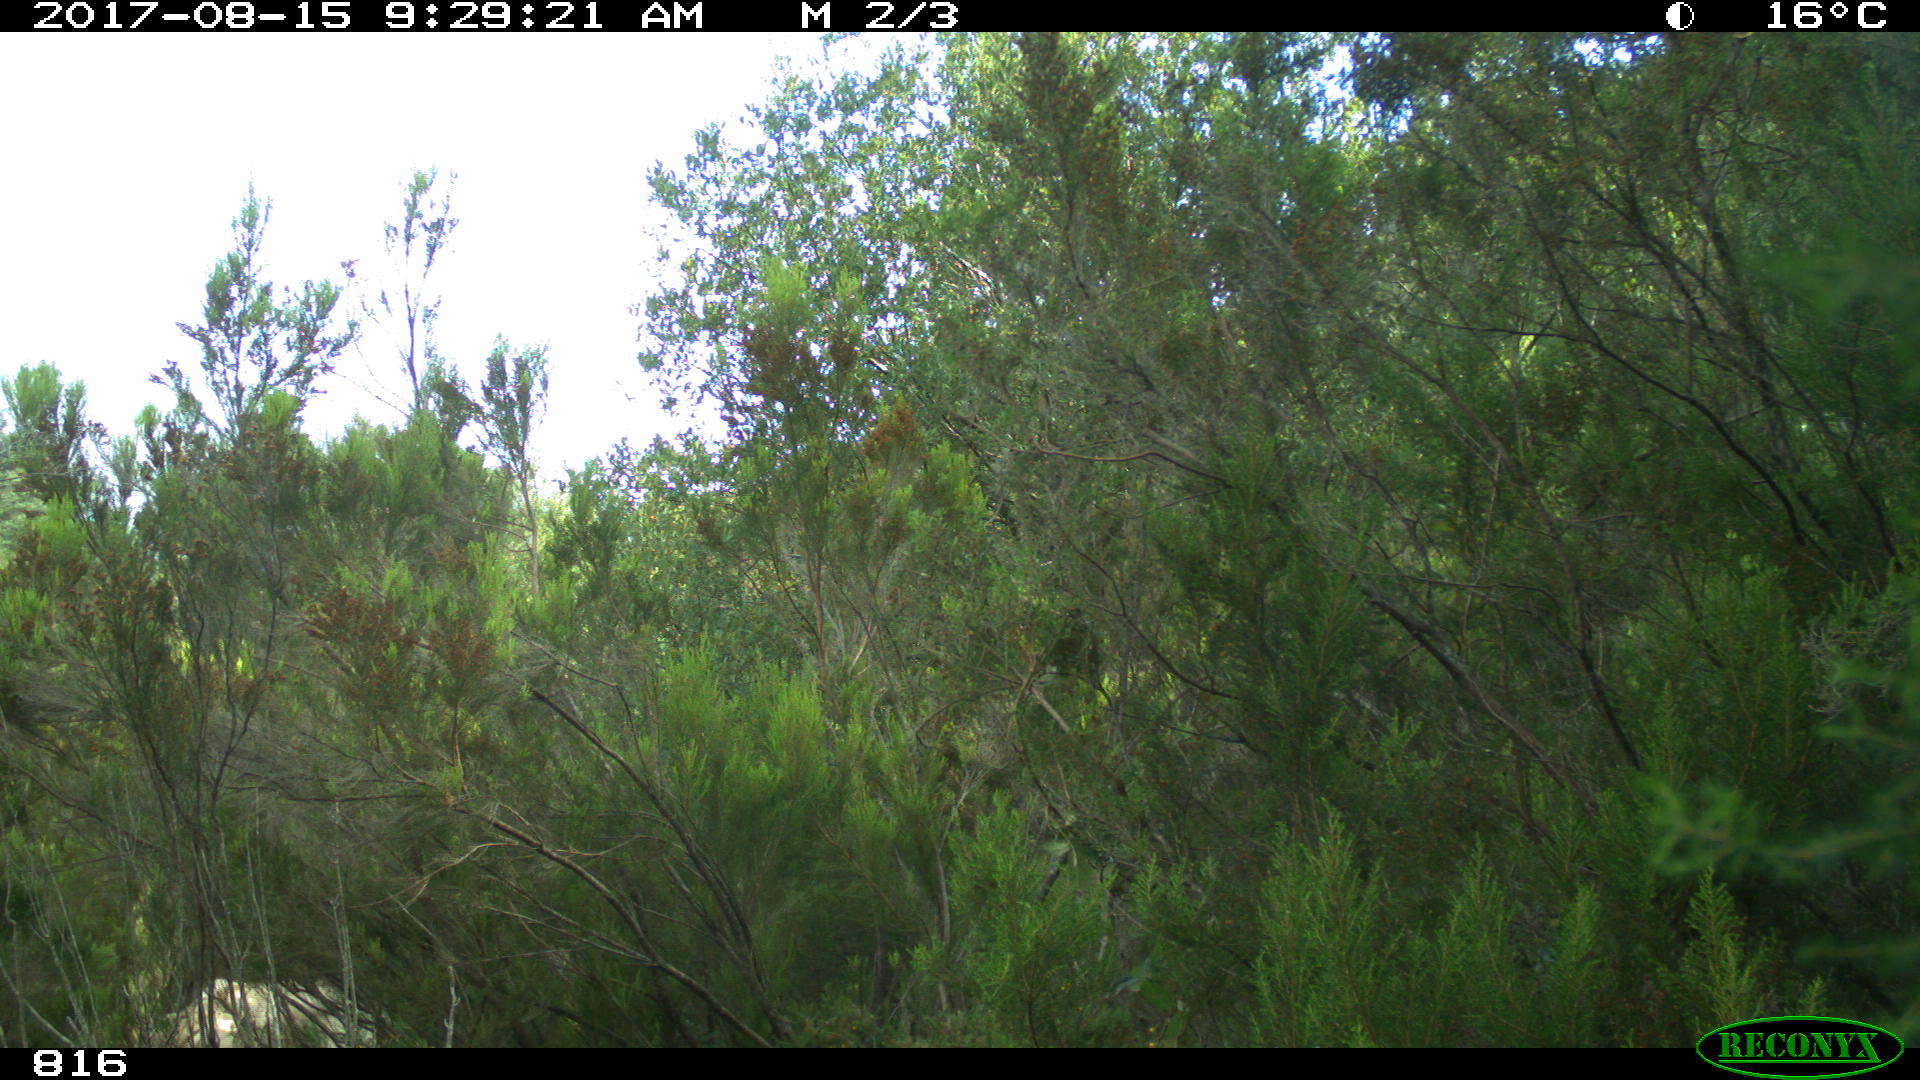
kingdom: Animalia
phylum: Chordata
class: Mammalia
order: Artiodactyla
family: Bovidae
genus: Bos
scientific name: Bos taurus
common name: Domesticated cattle
